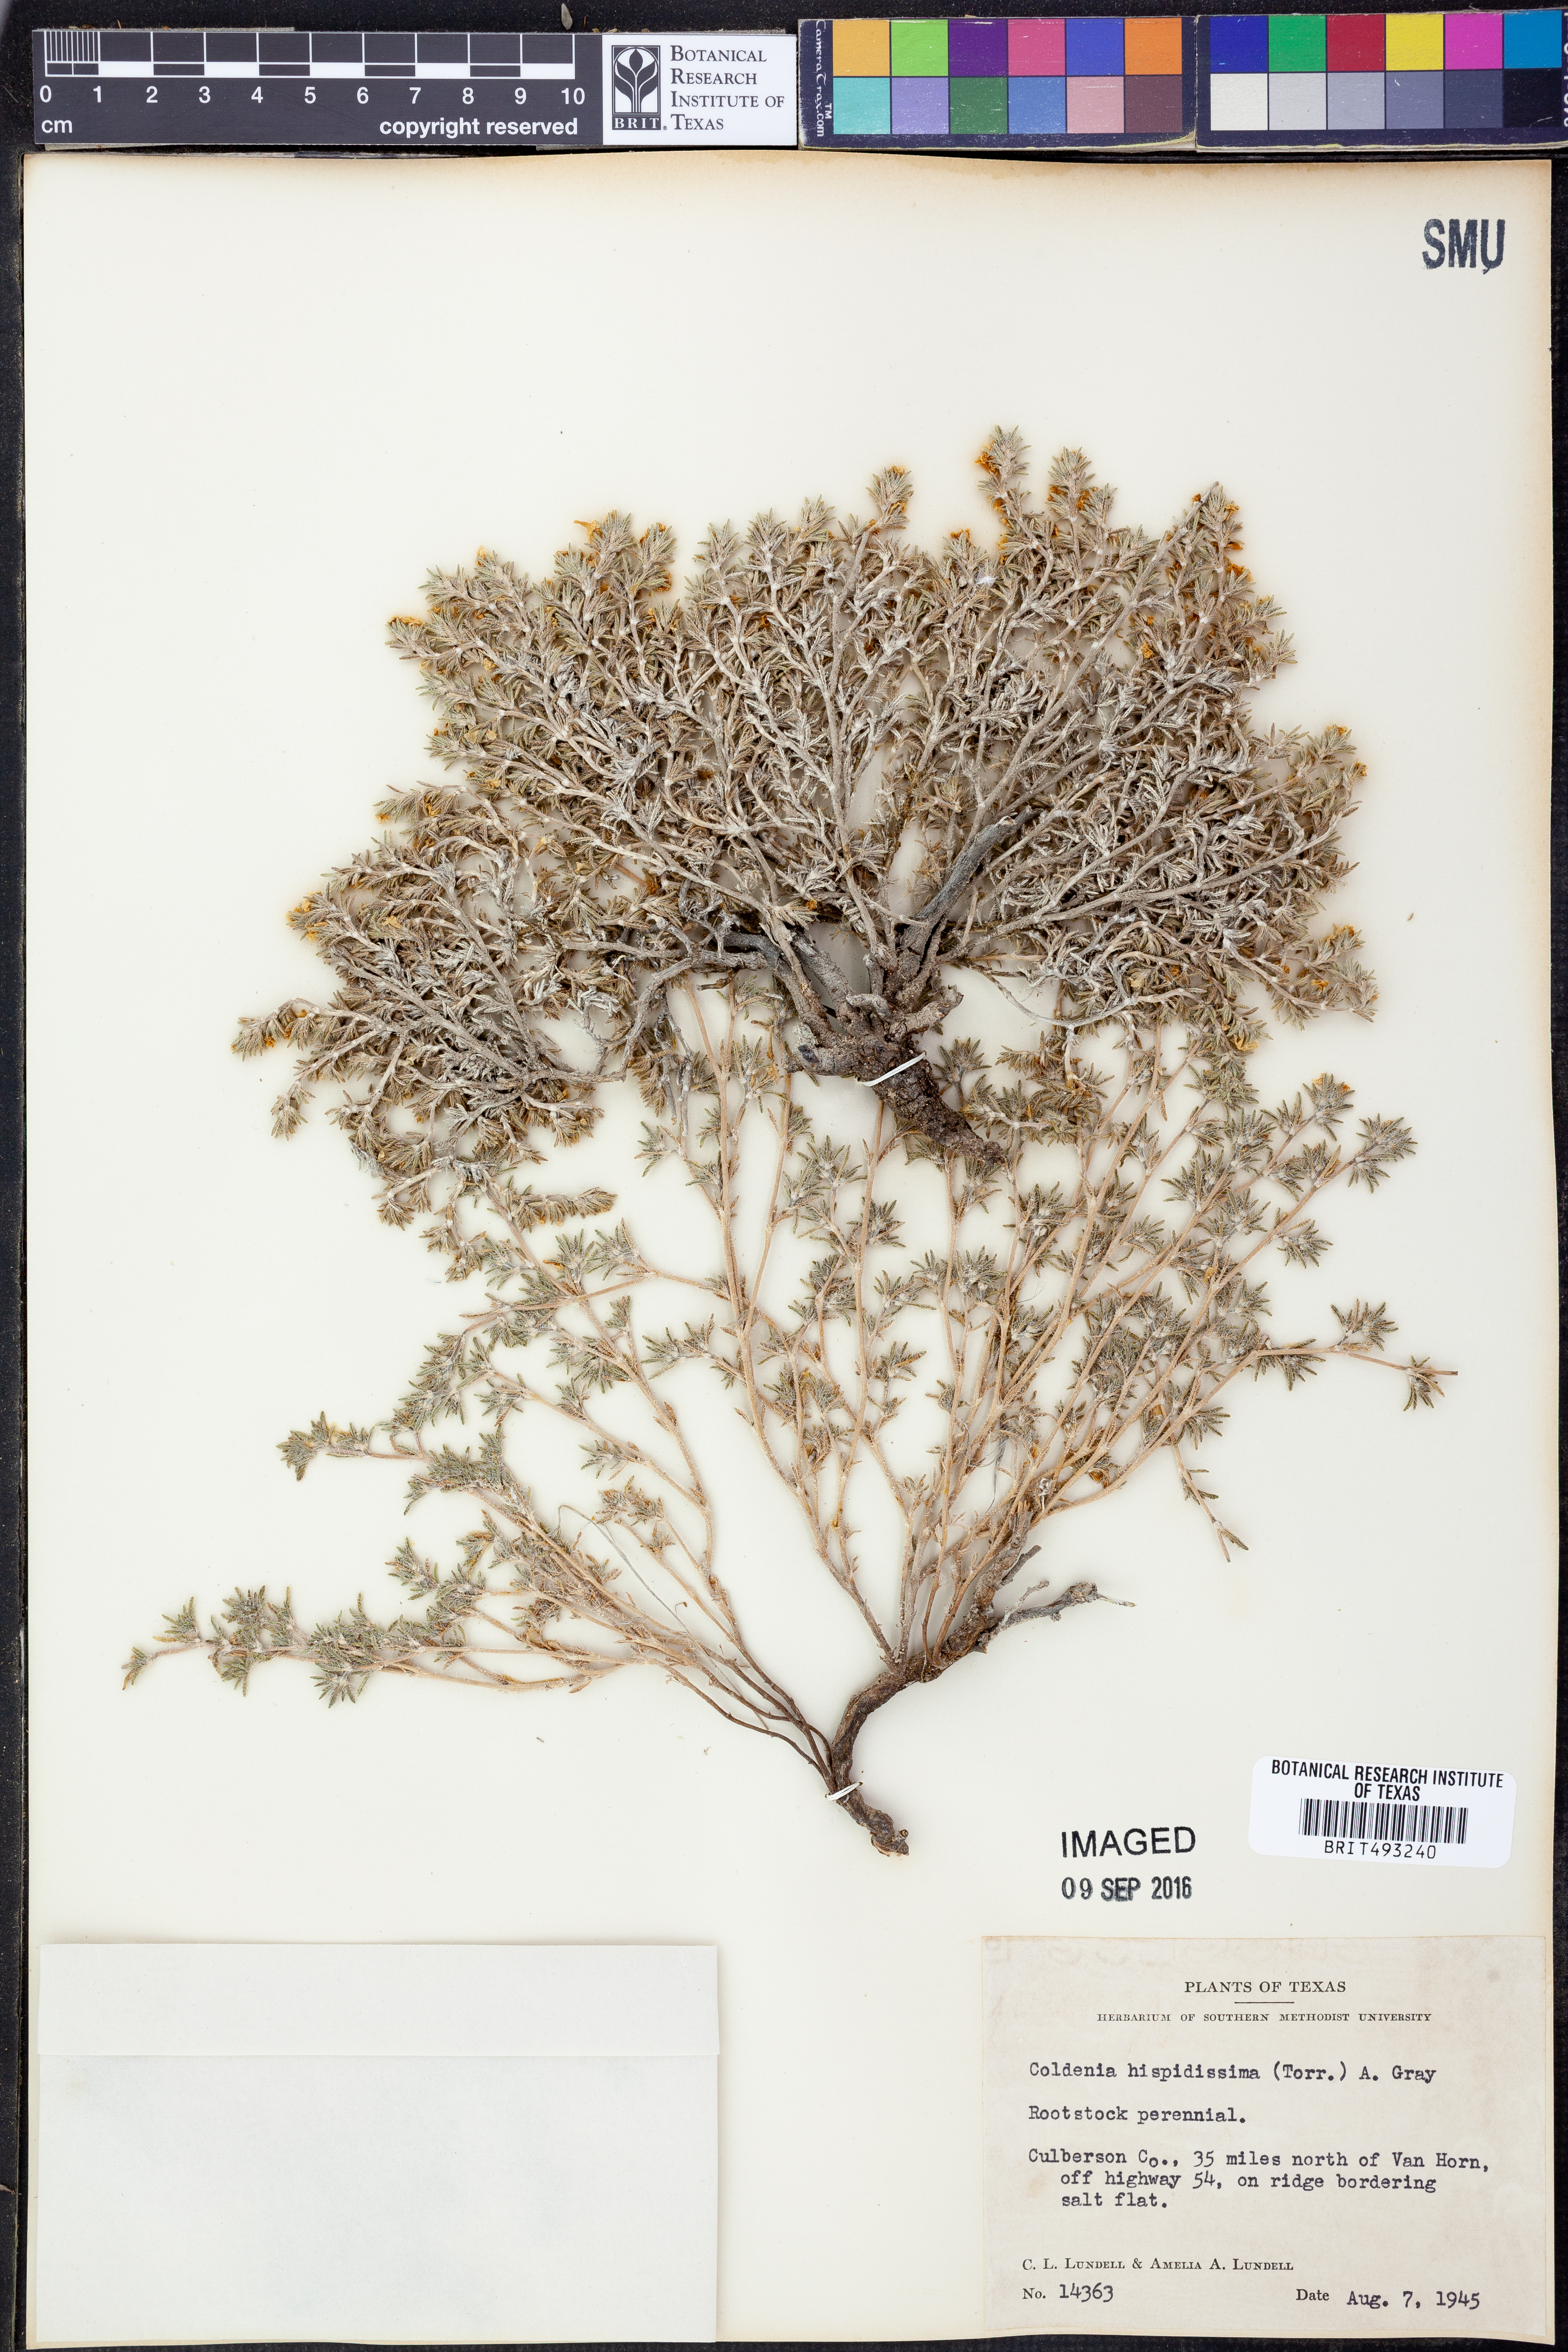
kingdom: Plantae
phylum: Tracheophyta
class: Magnoliopsida
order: Boraginales
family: Ehretiaceae
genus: Tiquilia
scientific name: Tiquilia hispidissima
